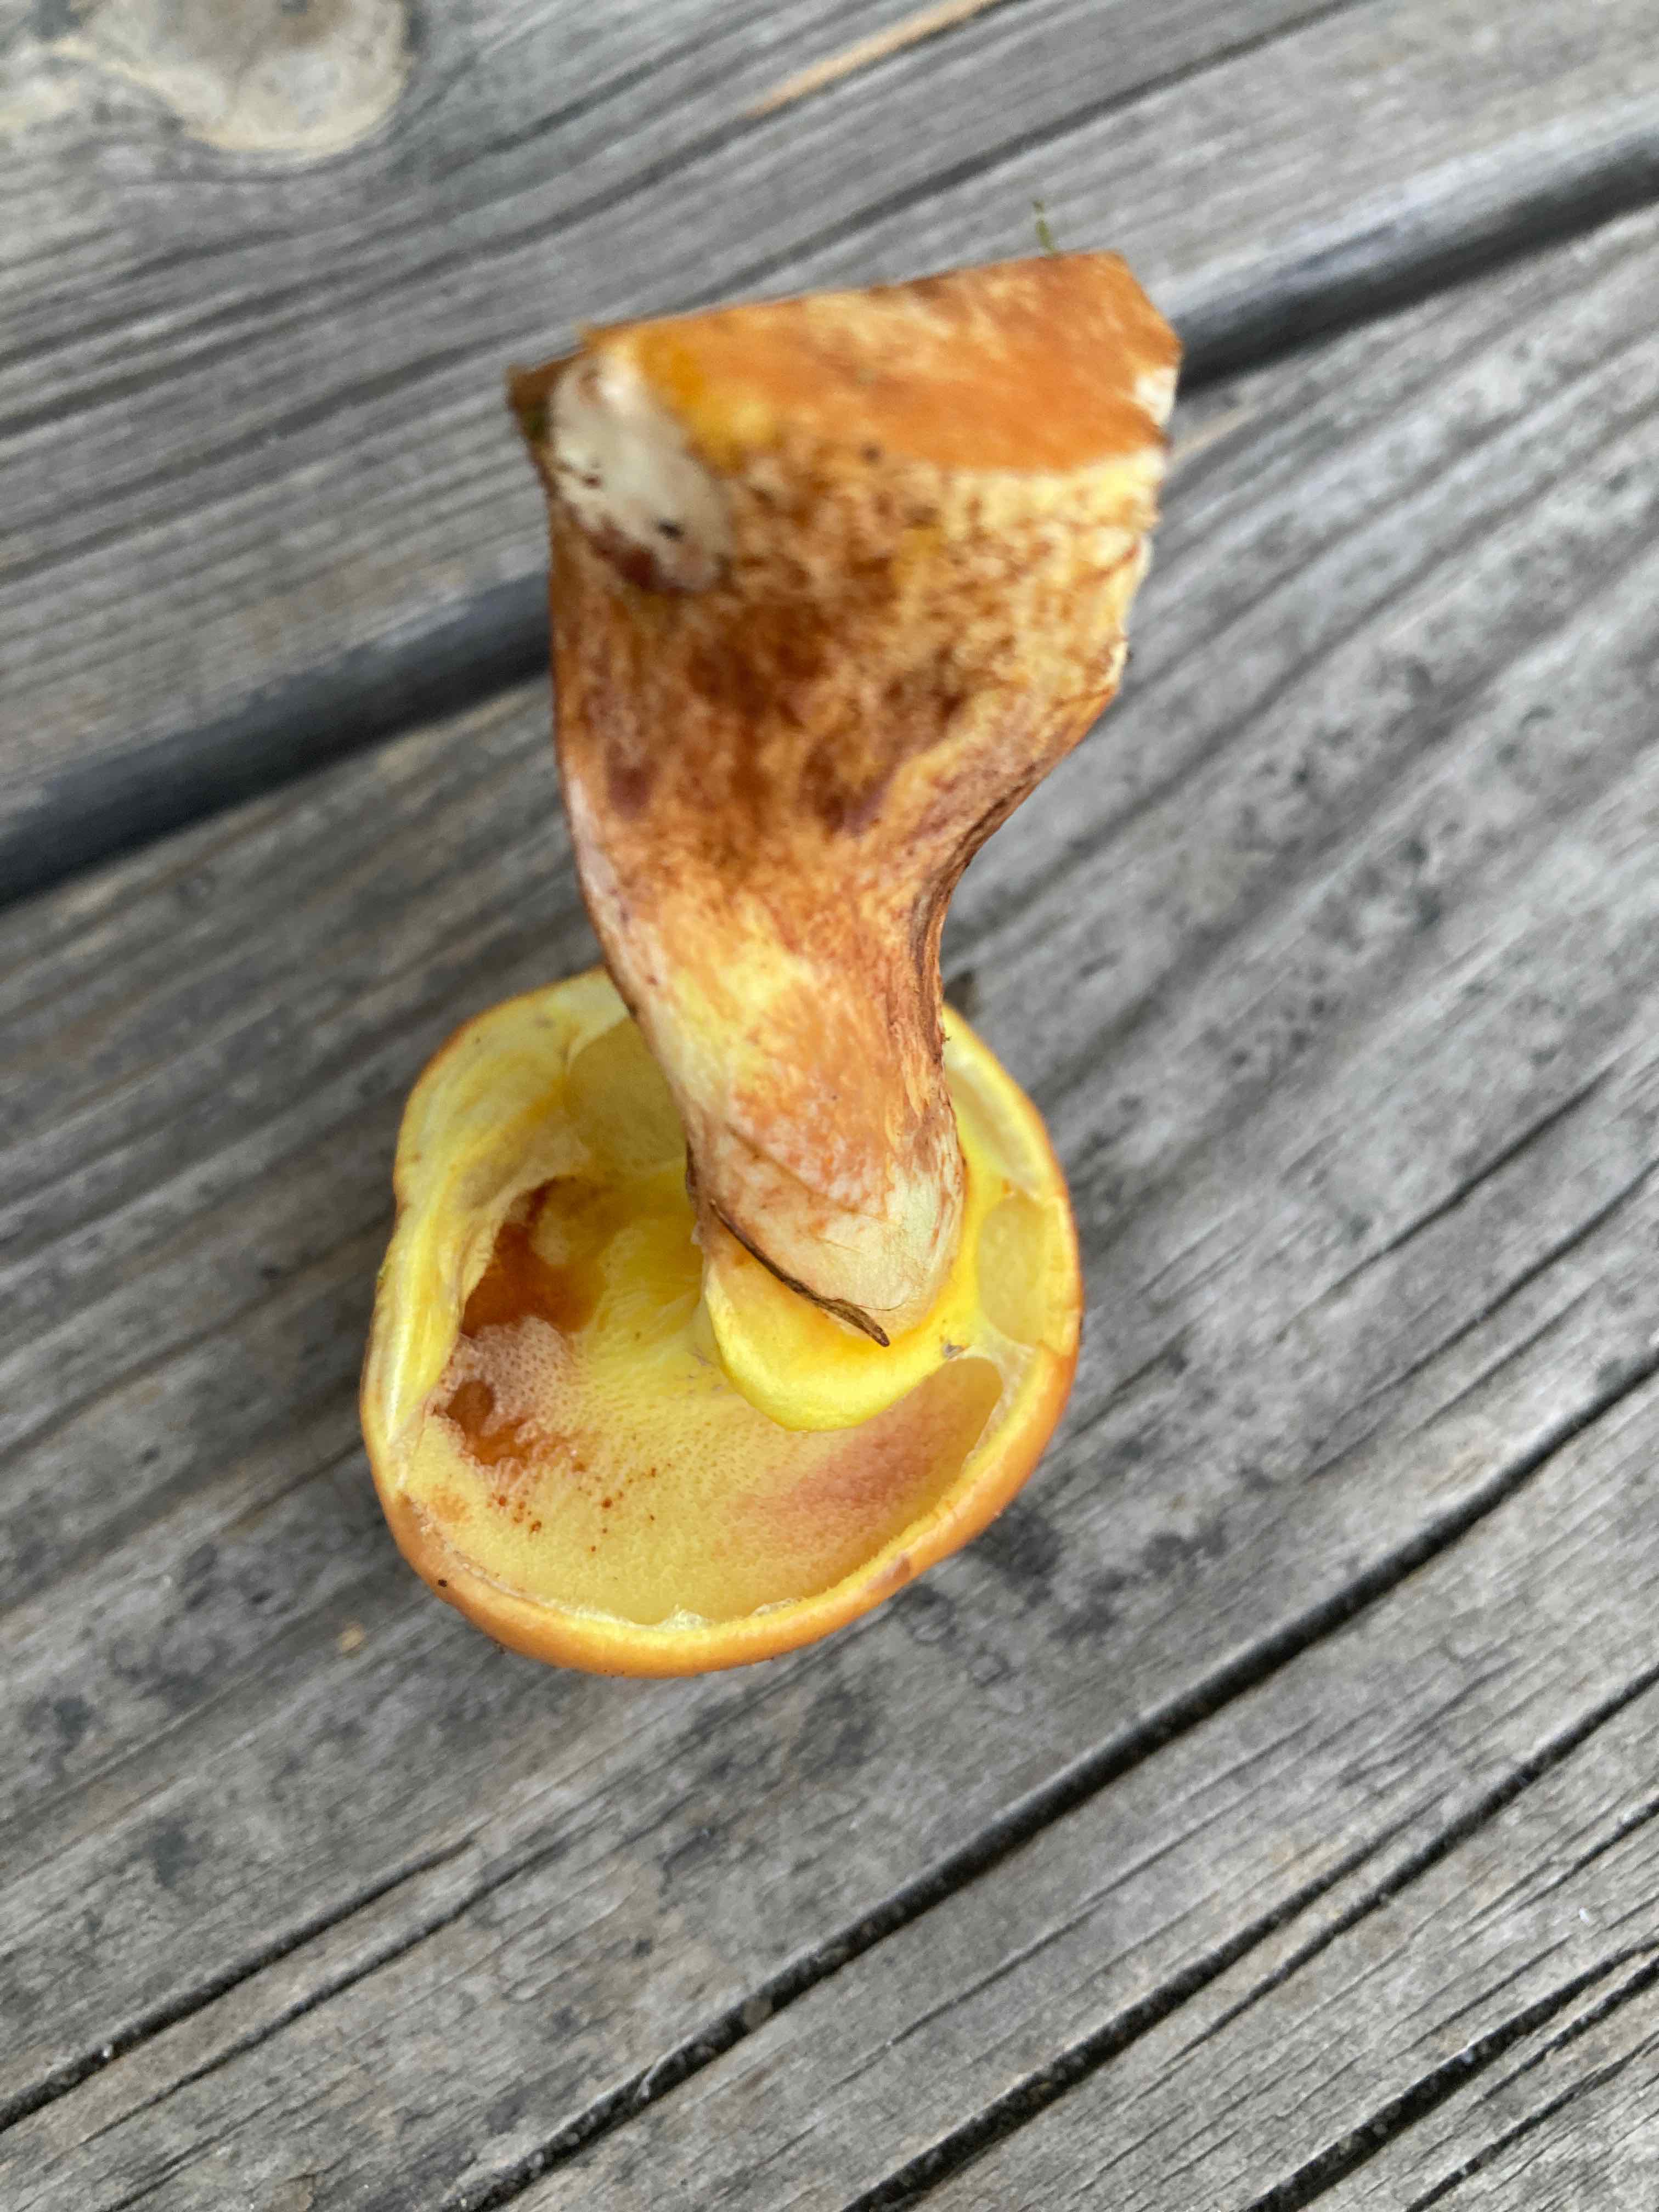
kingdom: Fungi
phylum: Basidiomycota
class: Agaricomycetes
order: Boletales
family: Suillaceae
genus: Suillus
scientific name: Suillus grevillei
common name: lærke-slimrørhat
